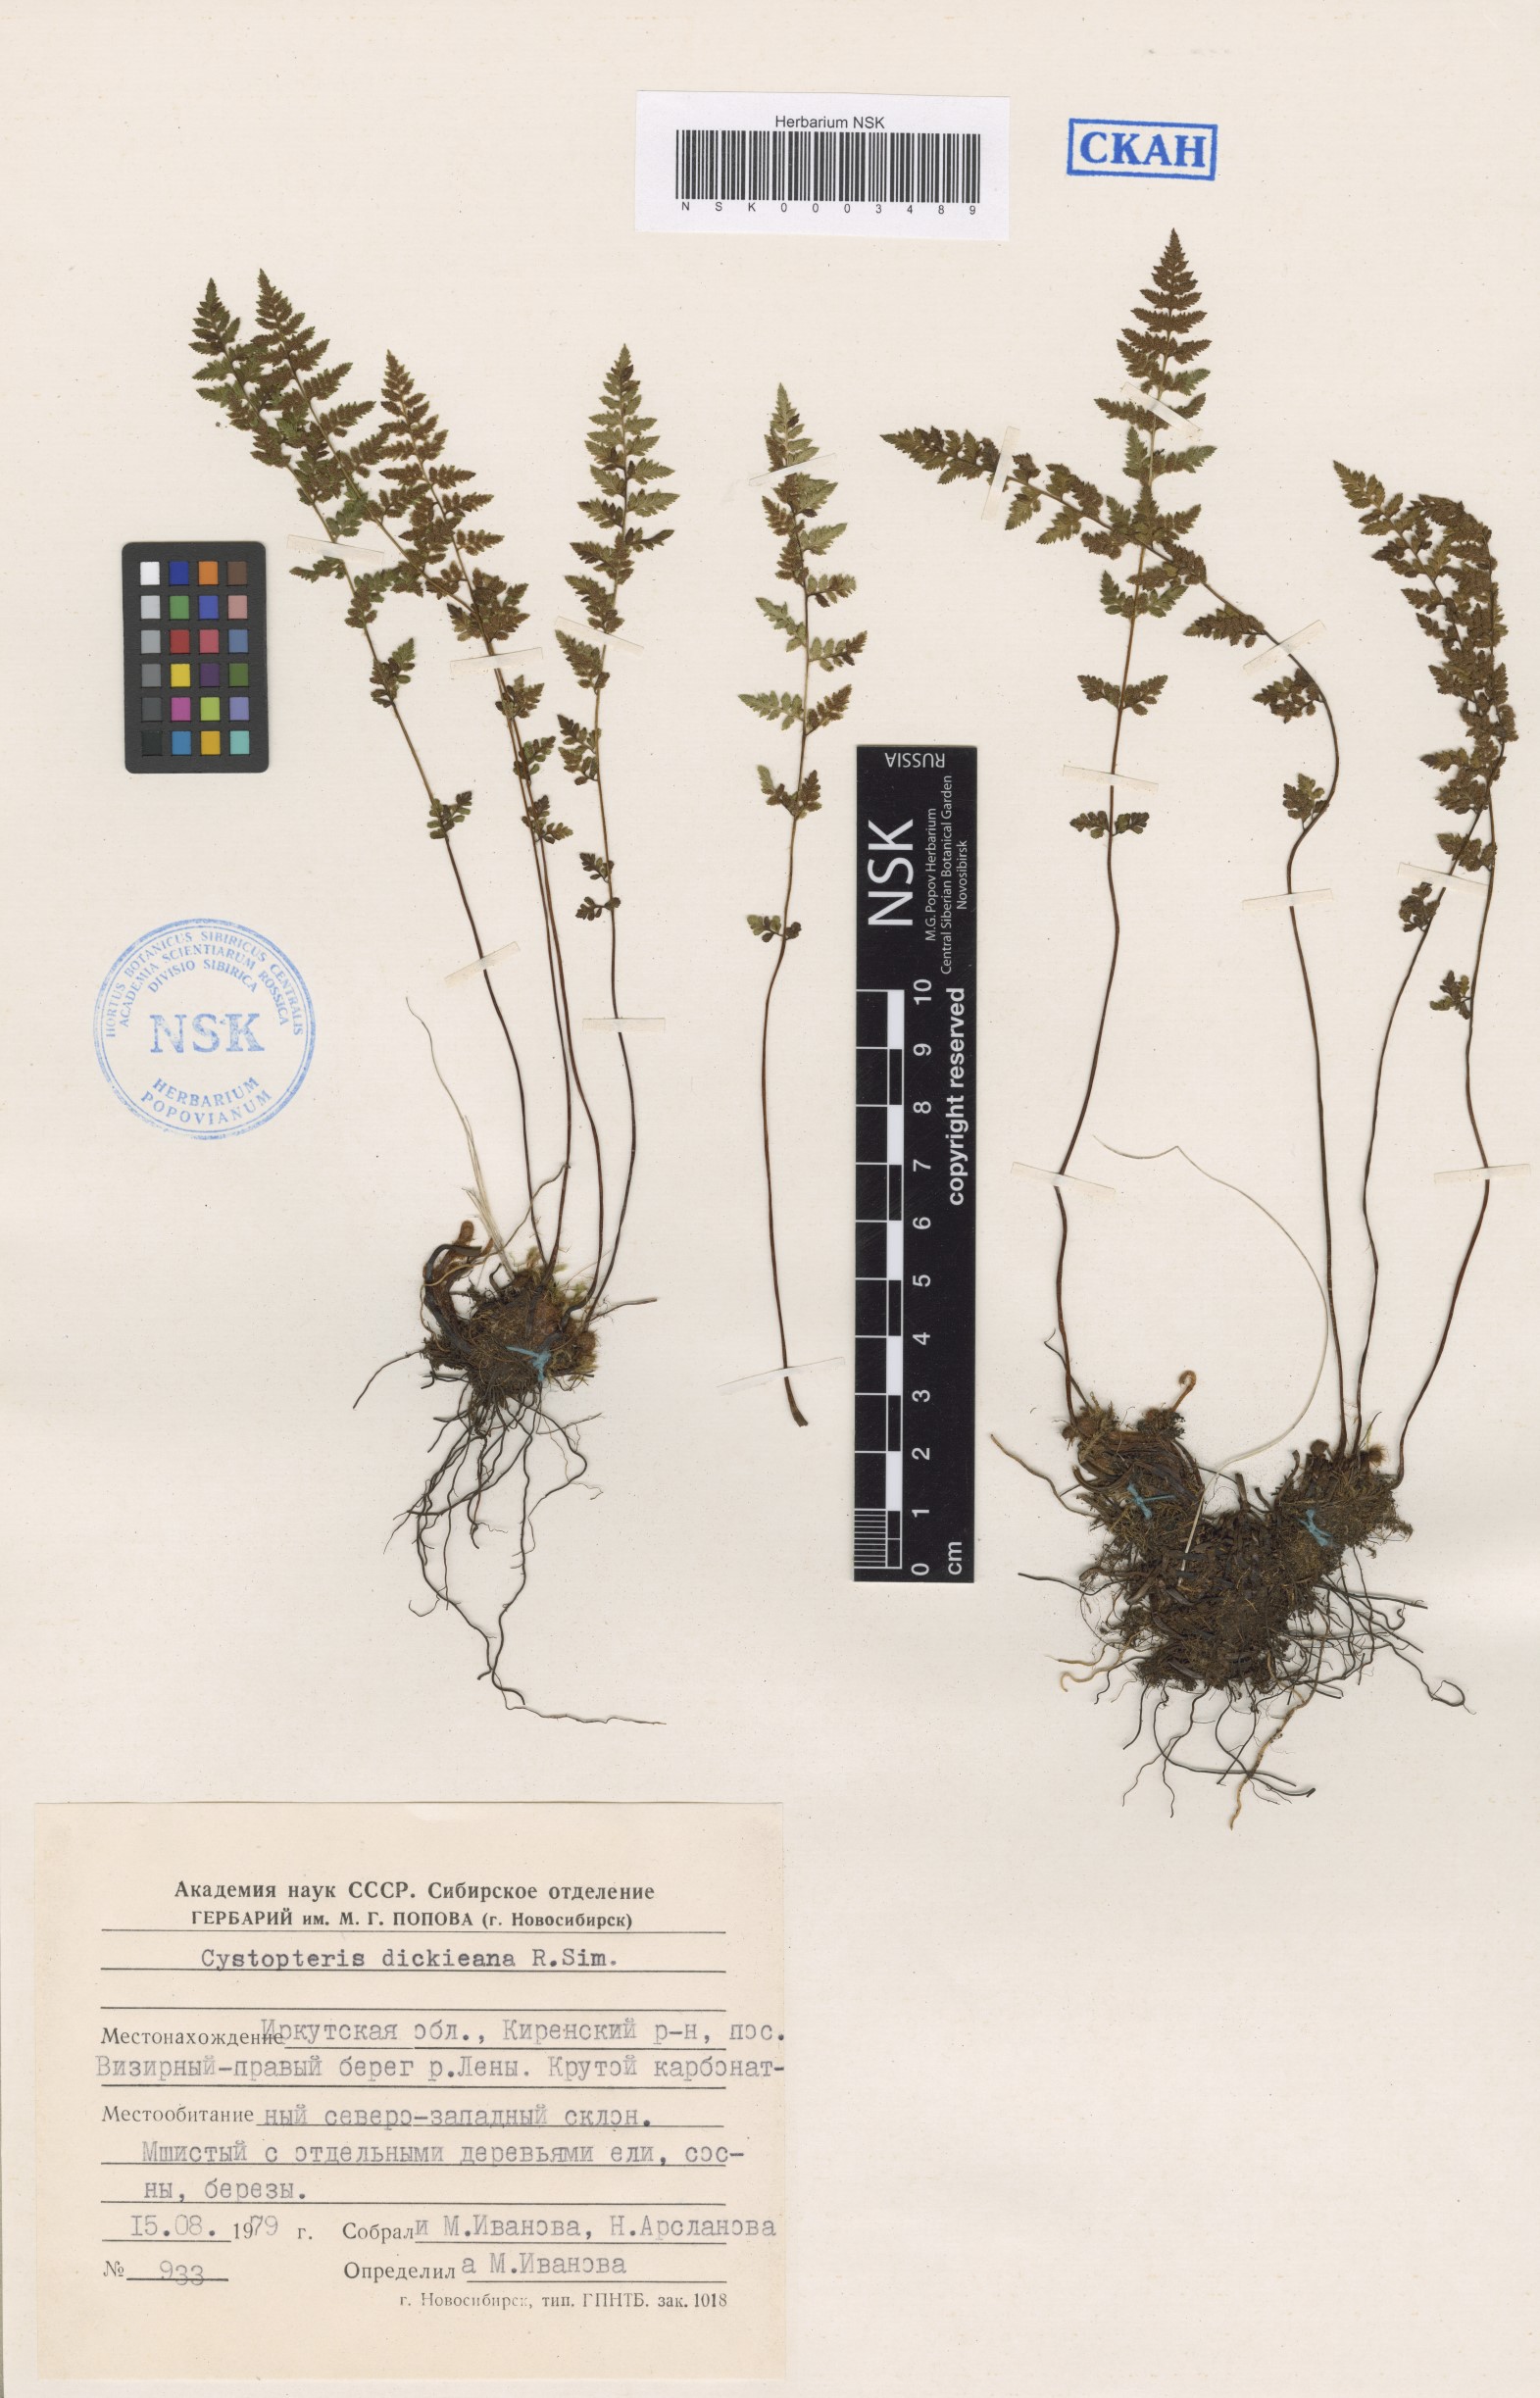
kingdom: Plantae
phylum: Tracheophyta
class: Polypodiopsida
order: Polypodiales
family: Cystopteridaceae
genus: Cystopteris
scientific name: Cystopteris dickieana
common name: Dickie's bladder-fern
